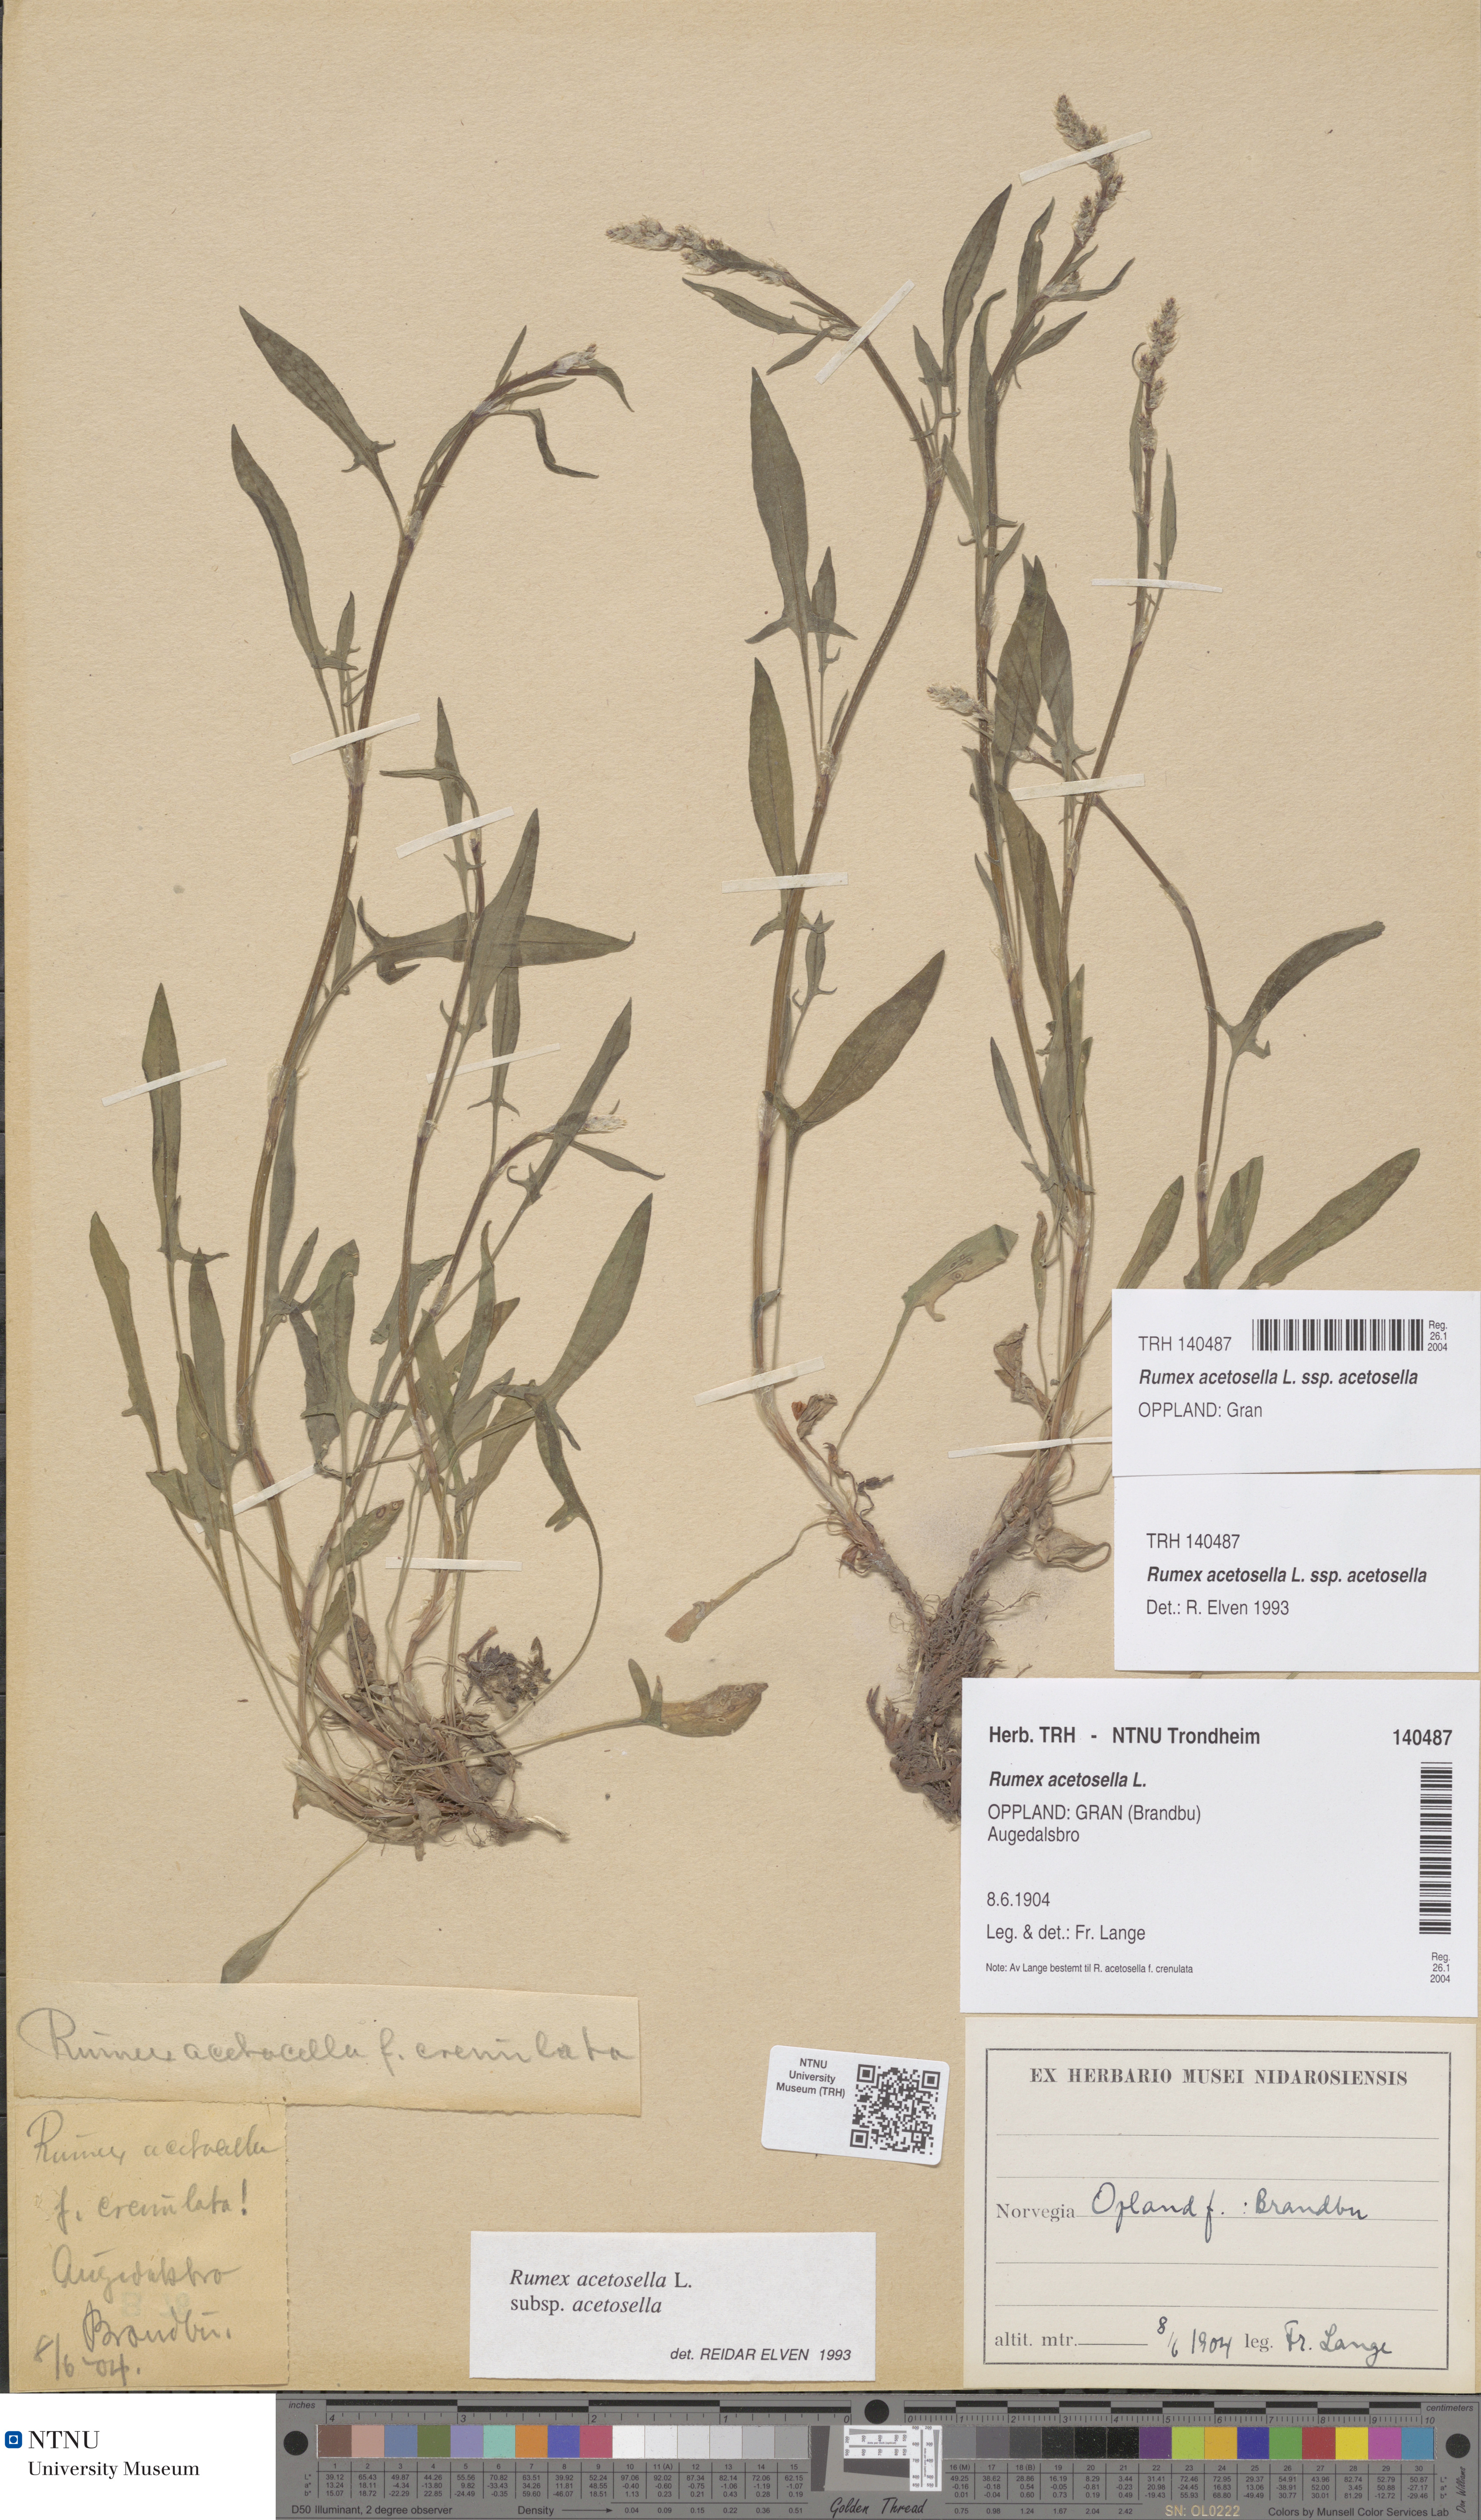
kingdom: Plantae
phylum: Tracheophyta
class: Magnoliopsida
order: Caryophyllales
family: Polygonaceae
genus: Rumex
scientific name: Rumex acetosella
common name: Common sheep sorrel
